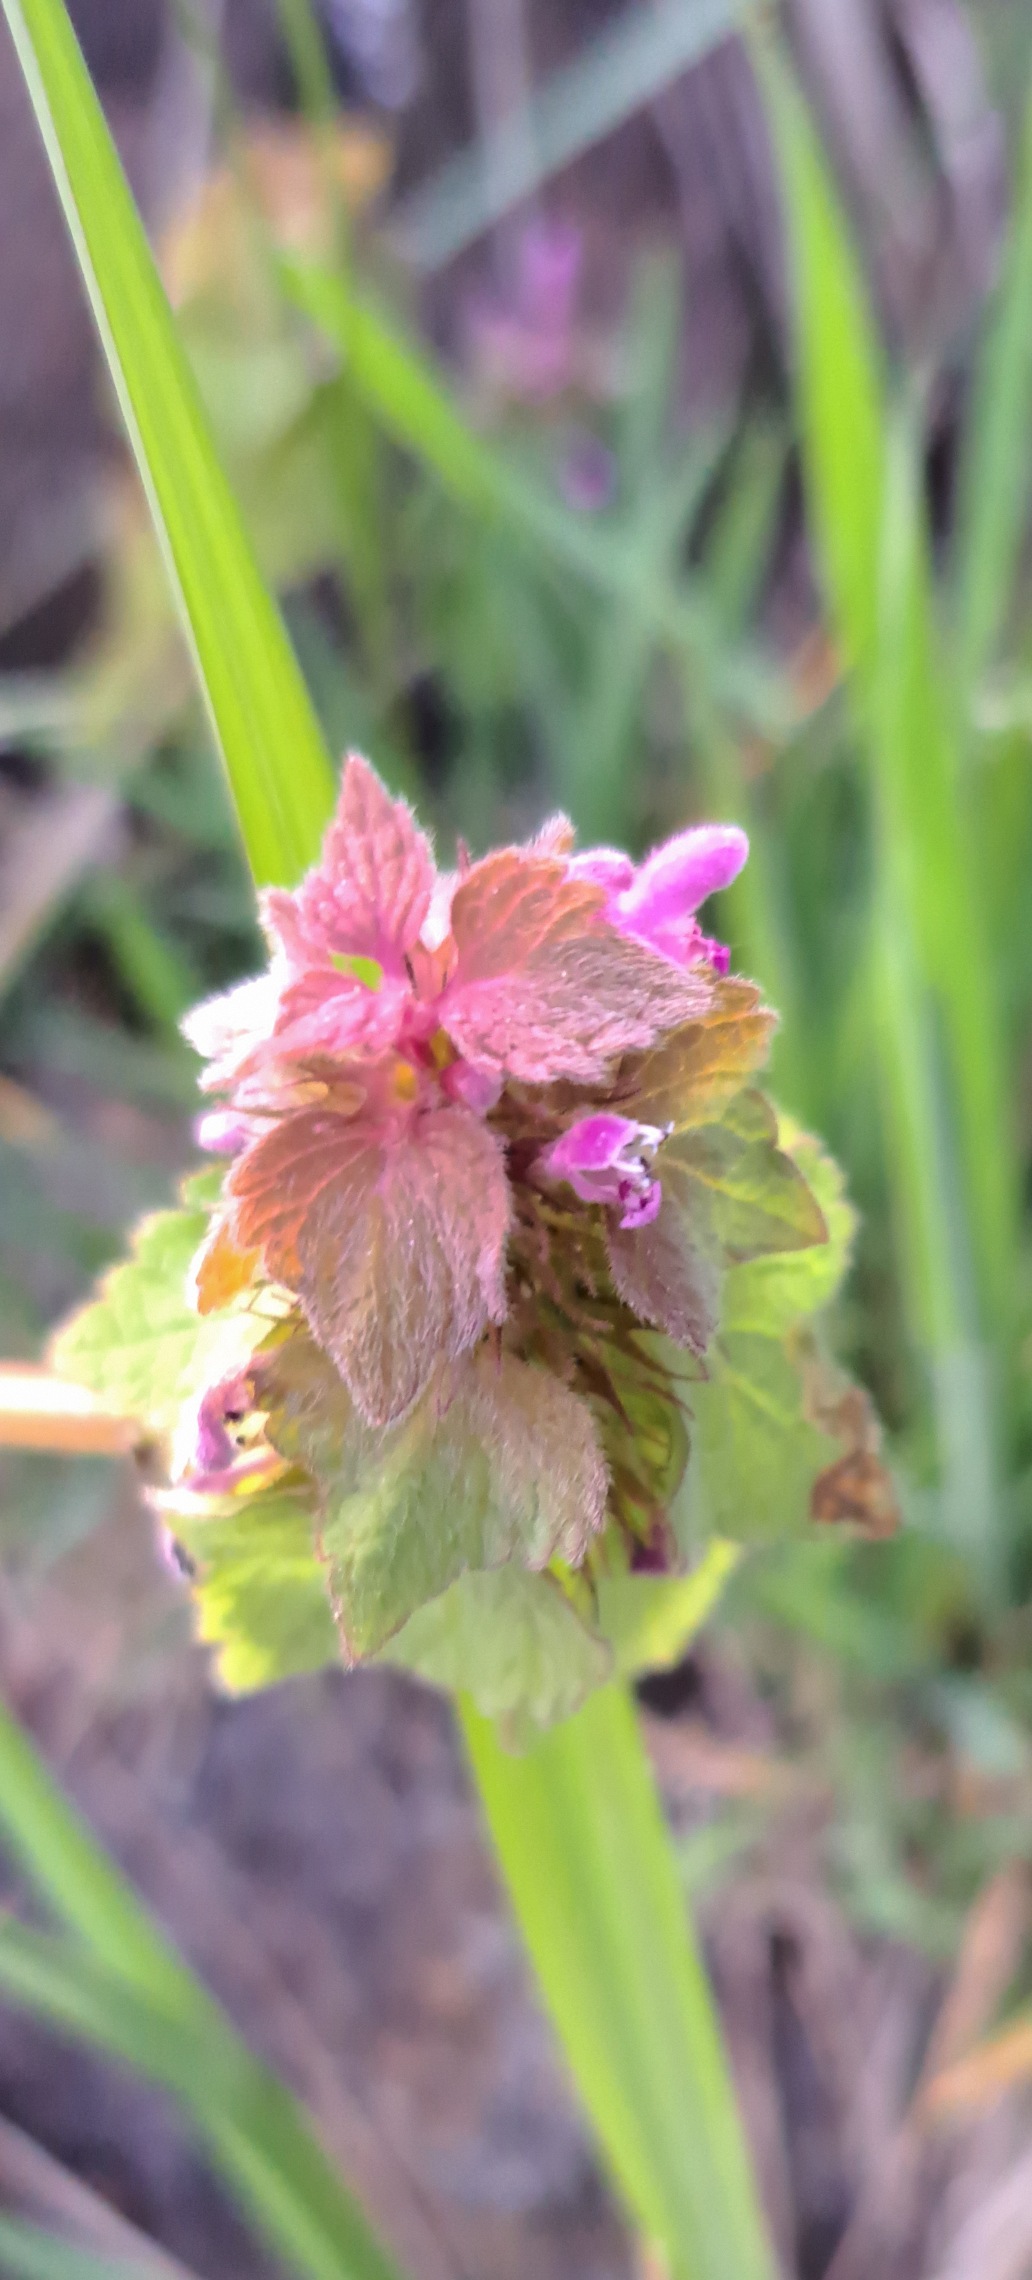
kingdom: Plantae
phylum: Tracheophyta
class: Magnoliopsida
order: Lamiales
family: Lamiaceae
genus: Lamium
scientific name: Lamium purpureum
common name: Rød tvetand
